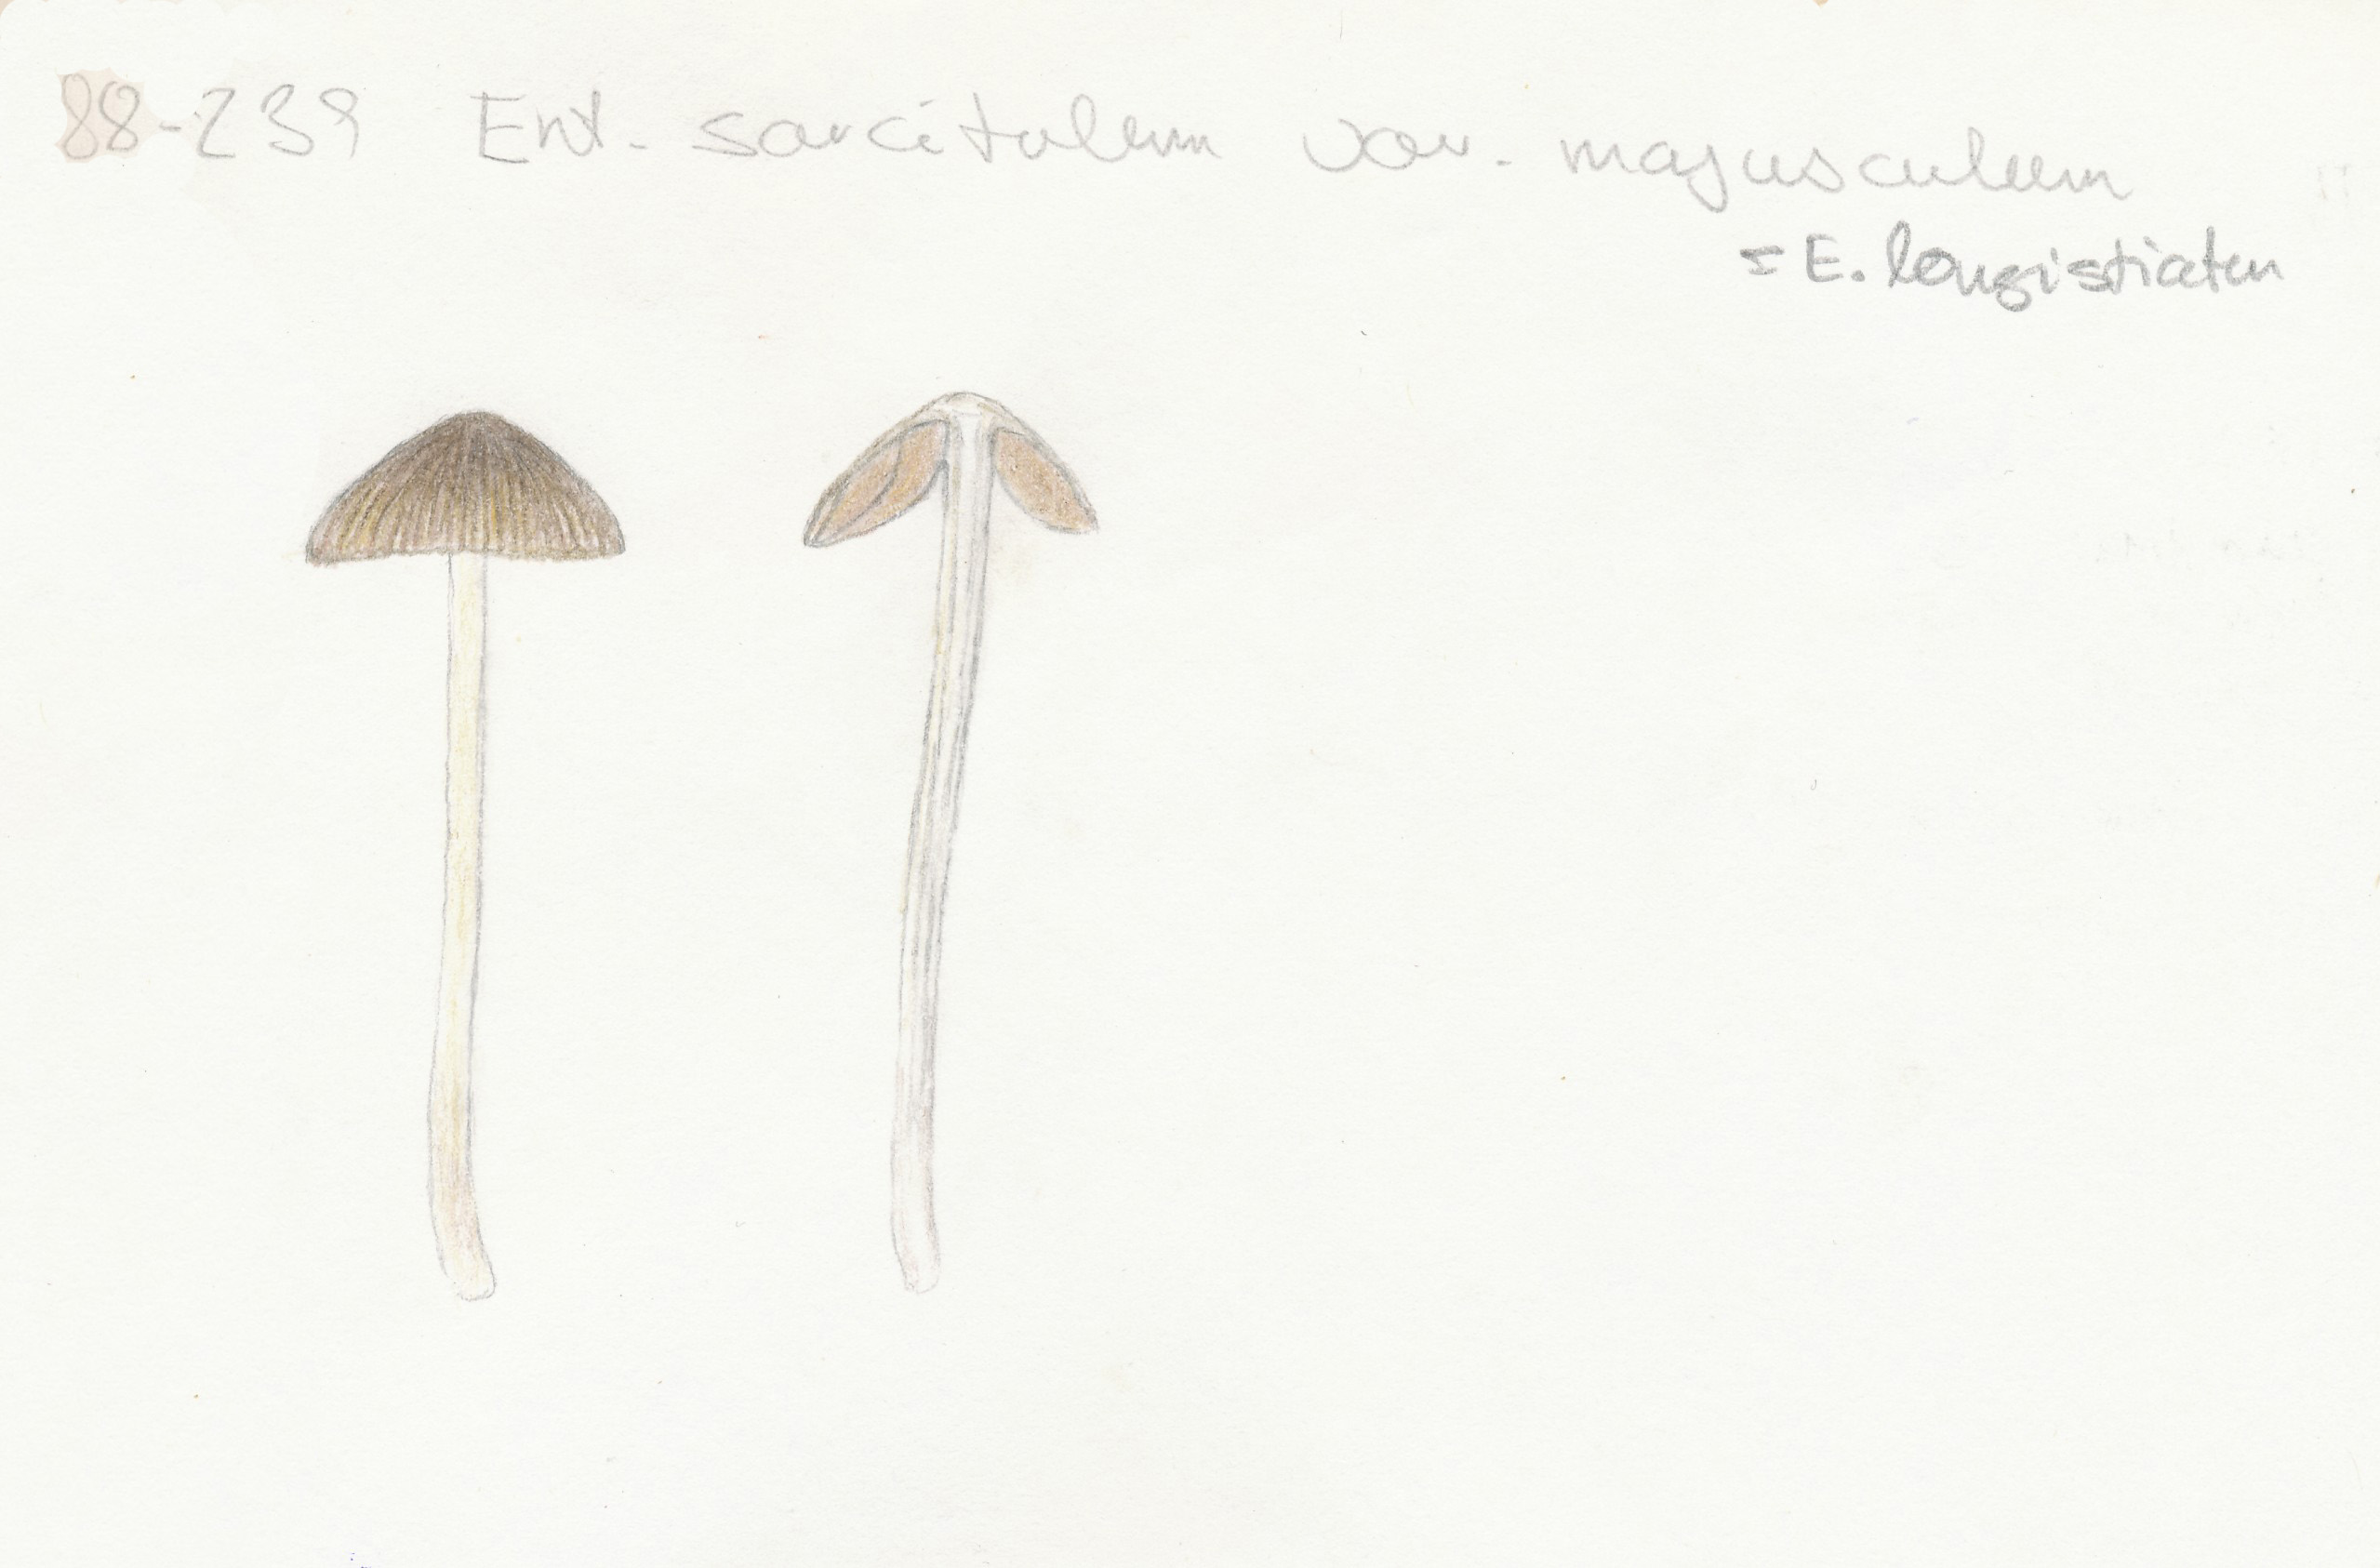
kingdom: Fungi
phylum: Basidiomycota
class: Agaricomycetes
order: Agaricales
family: Entolomataceae
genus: Entoloma
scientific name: Entoloma longistriatum
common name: gråfodet rødblad
